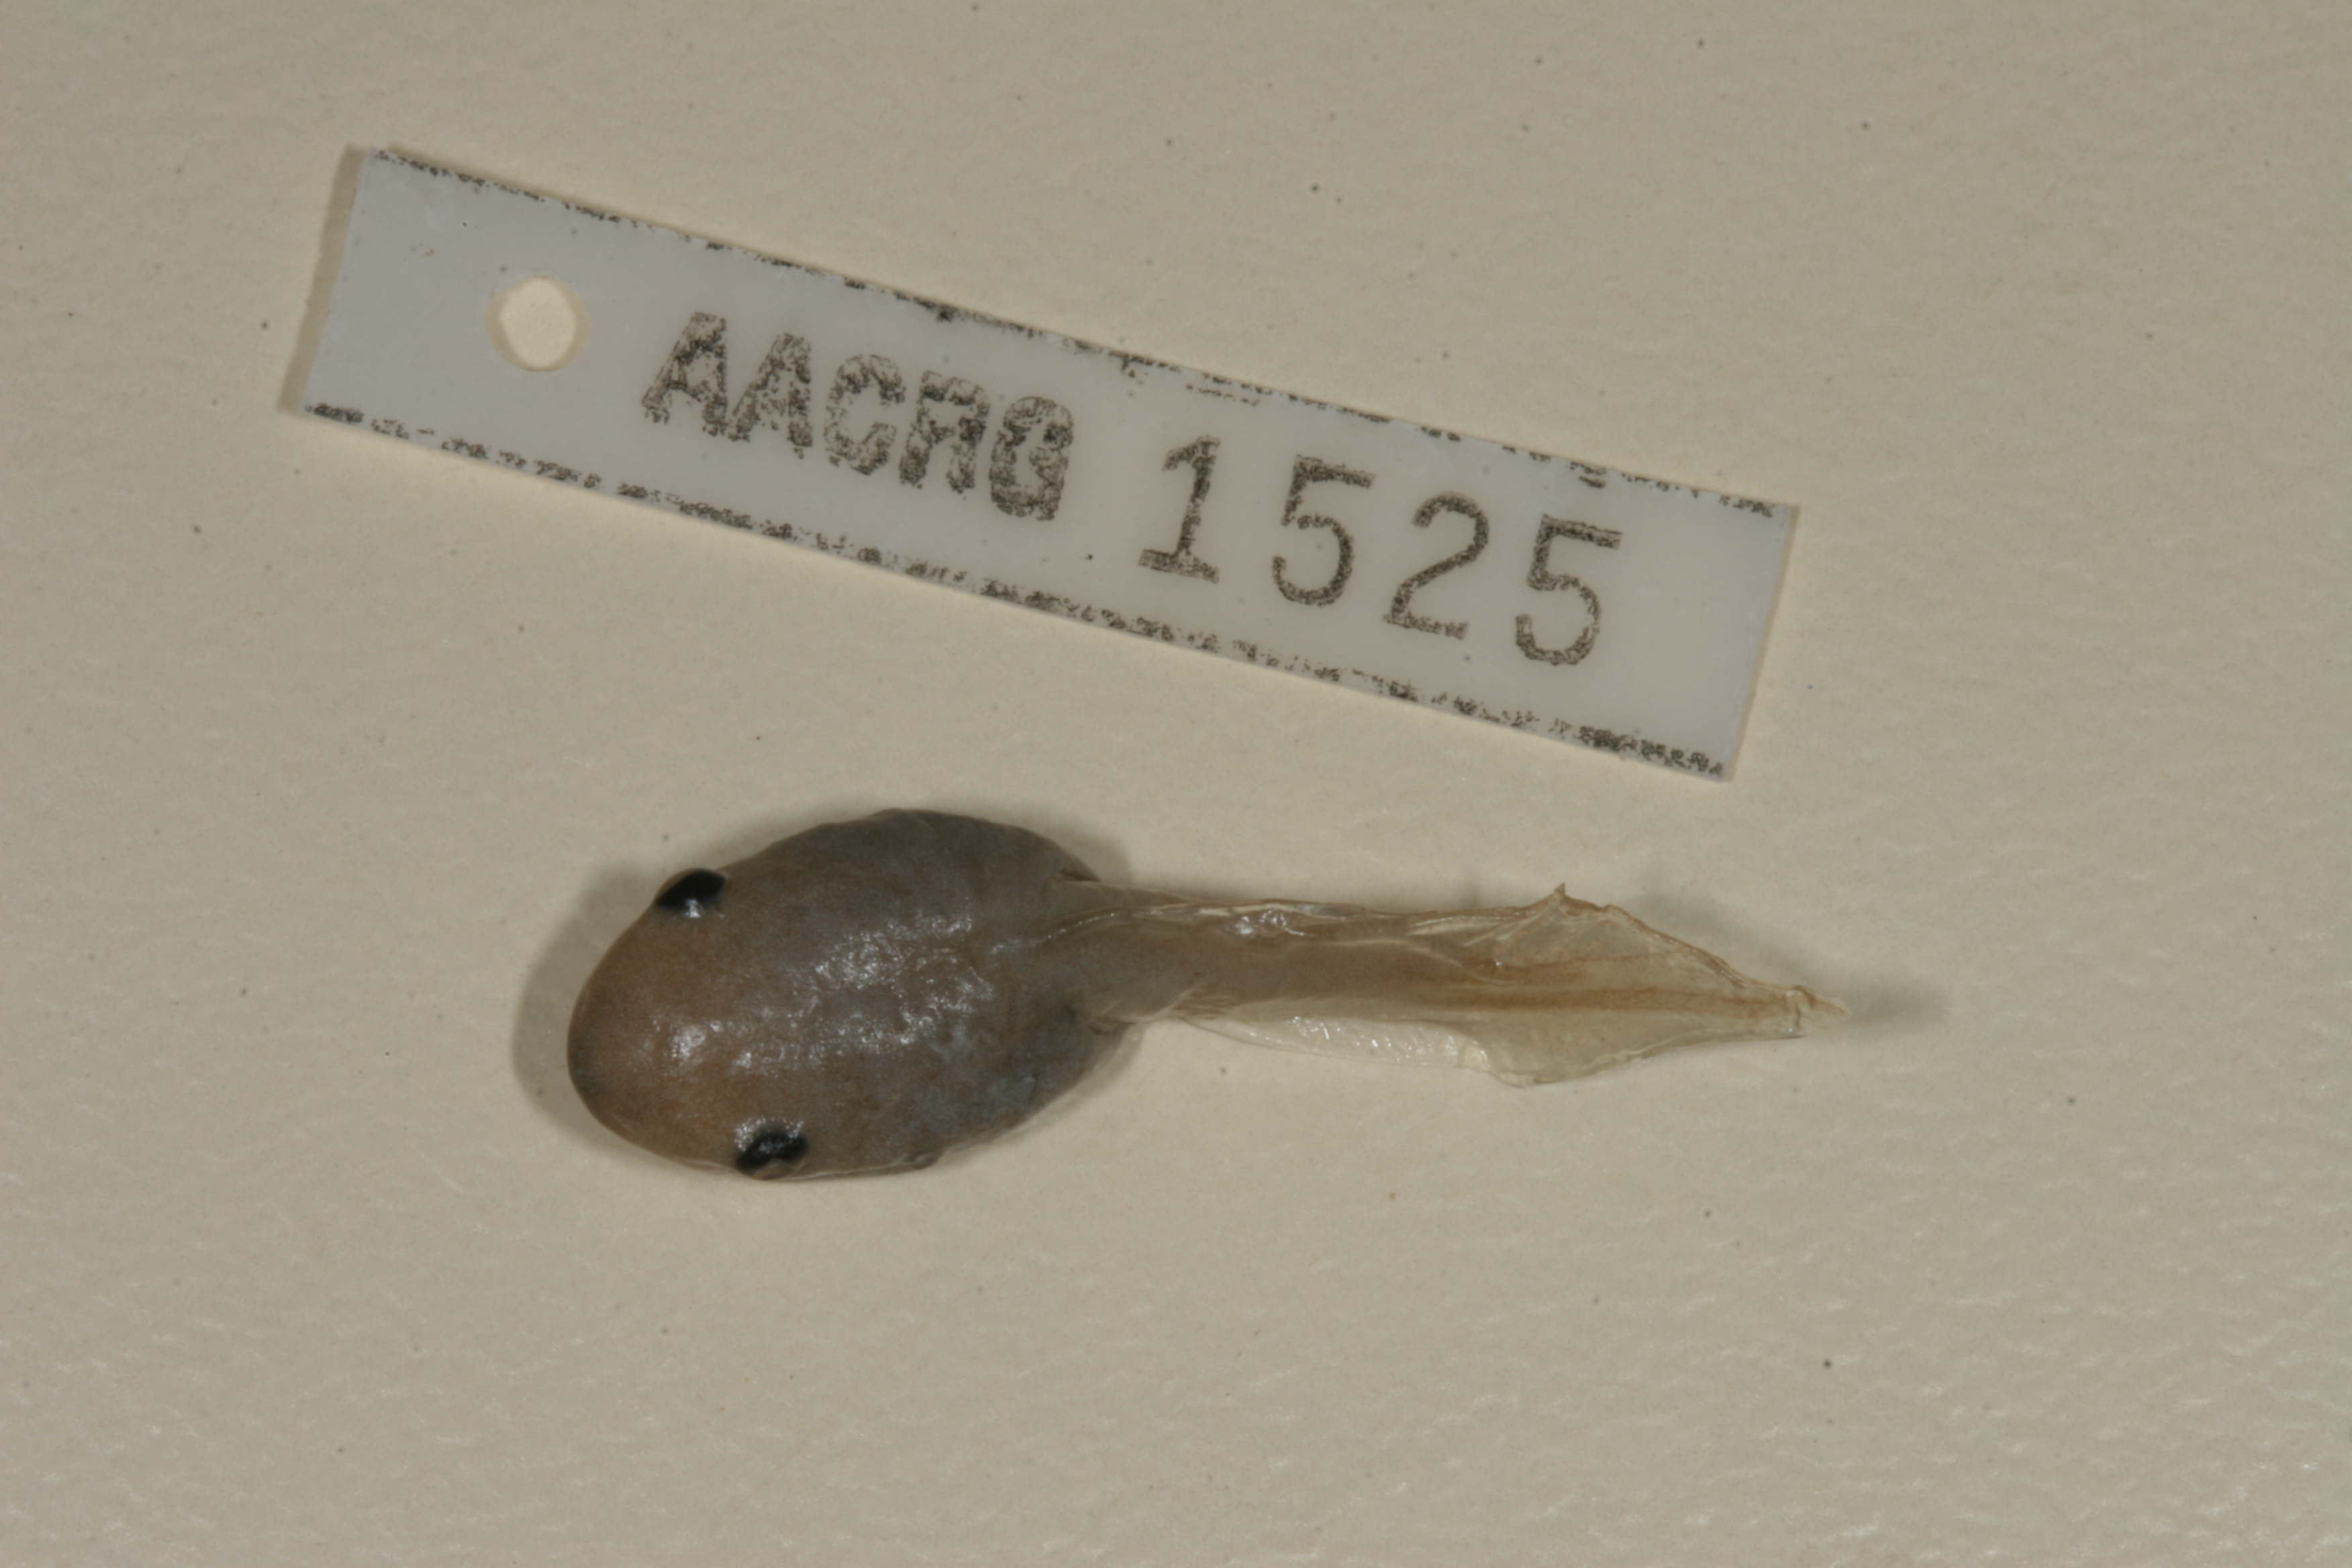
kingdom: Animalia
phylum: Chordata
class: Amphibia
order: Anura
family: Hemisotidae
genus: Hemisus
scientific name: Hemisus marmoratus
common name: Mottled shovel-nosed frog
